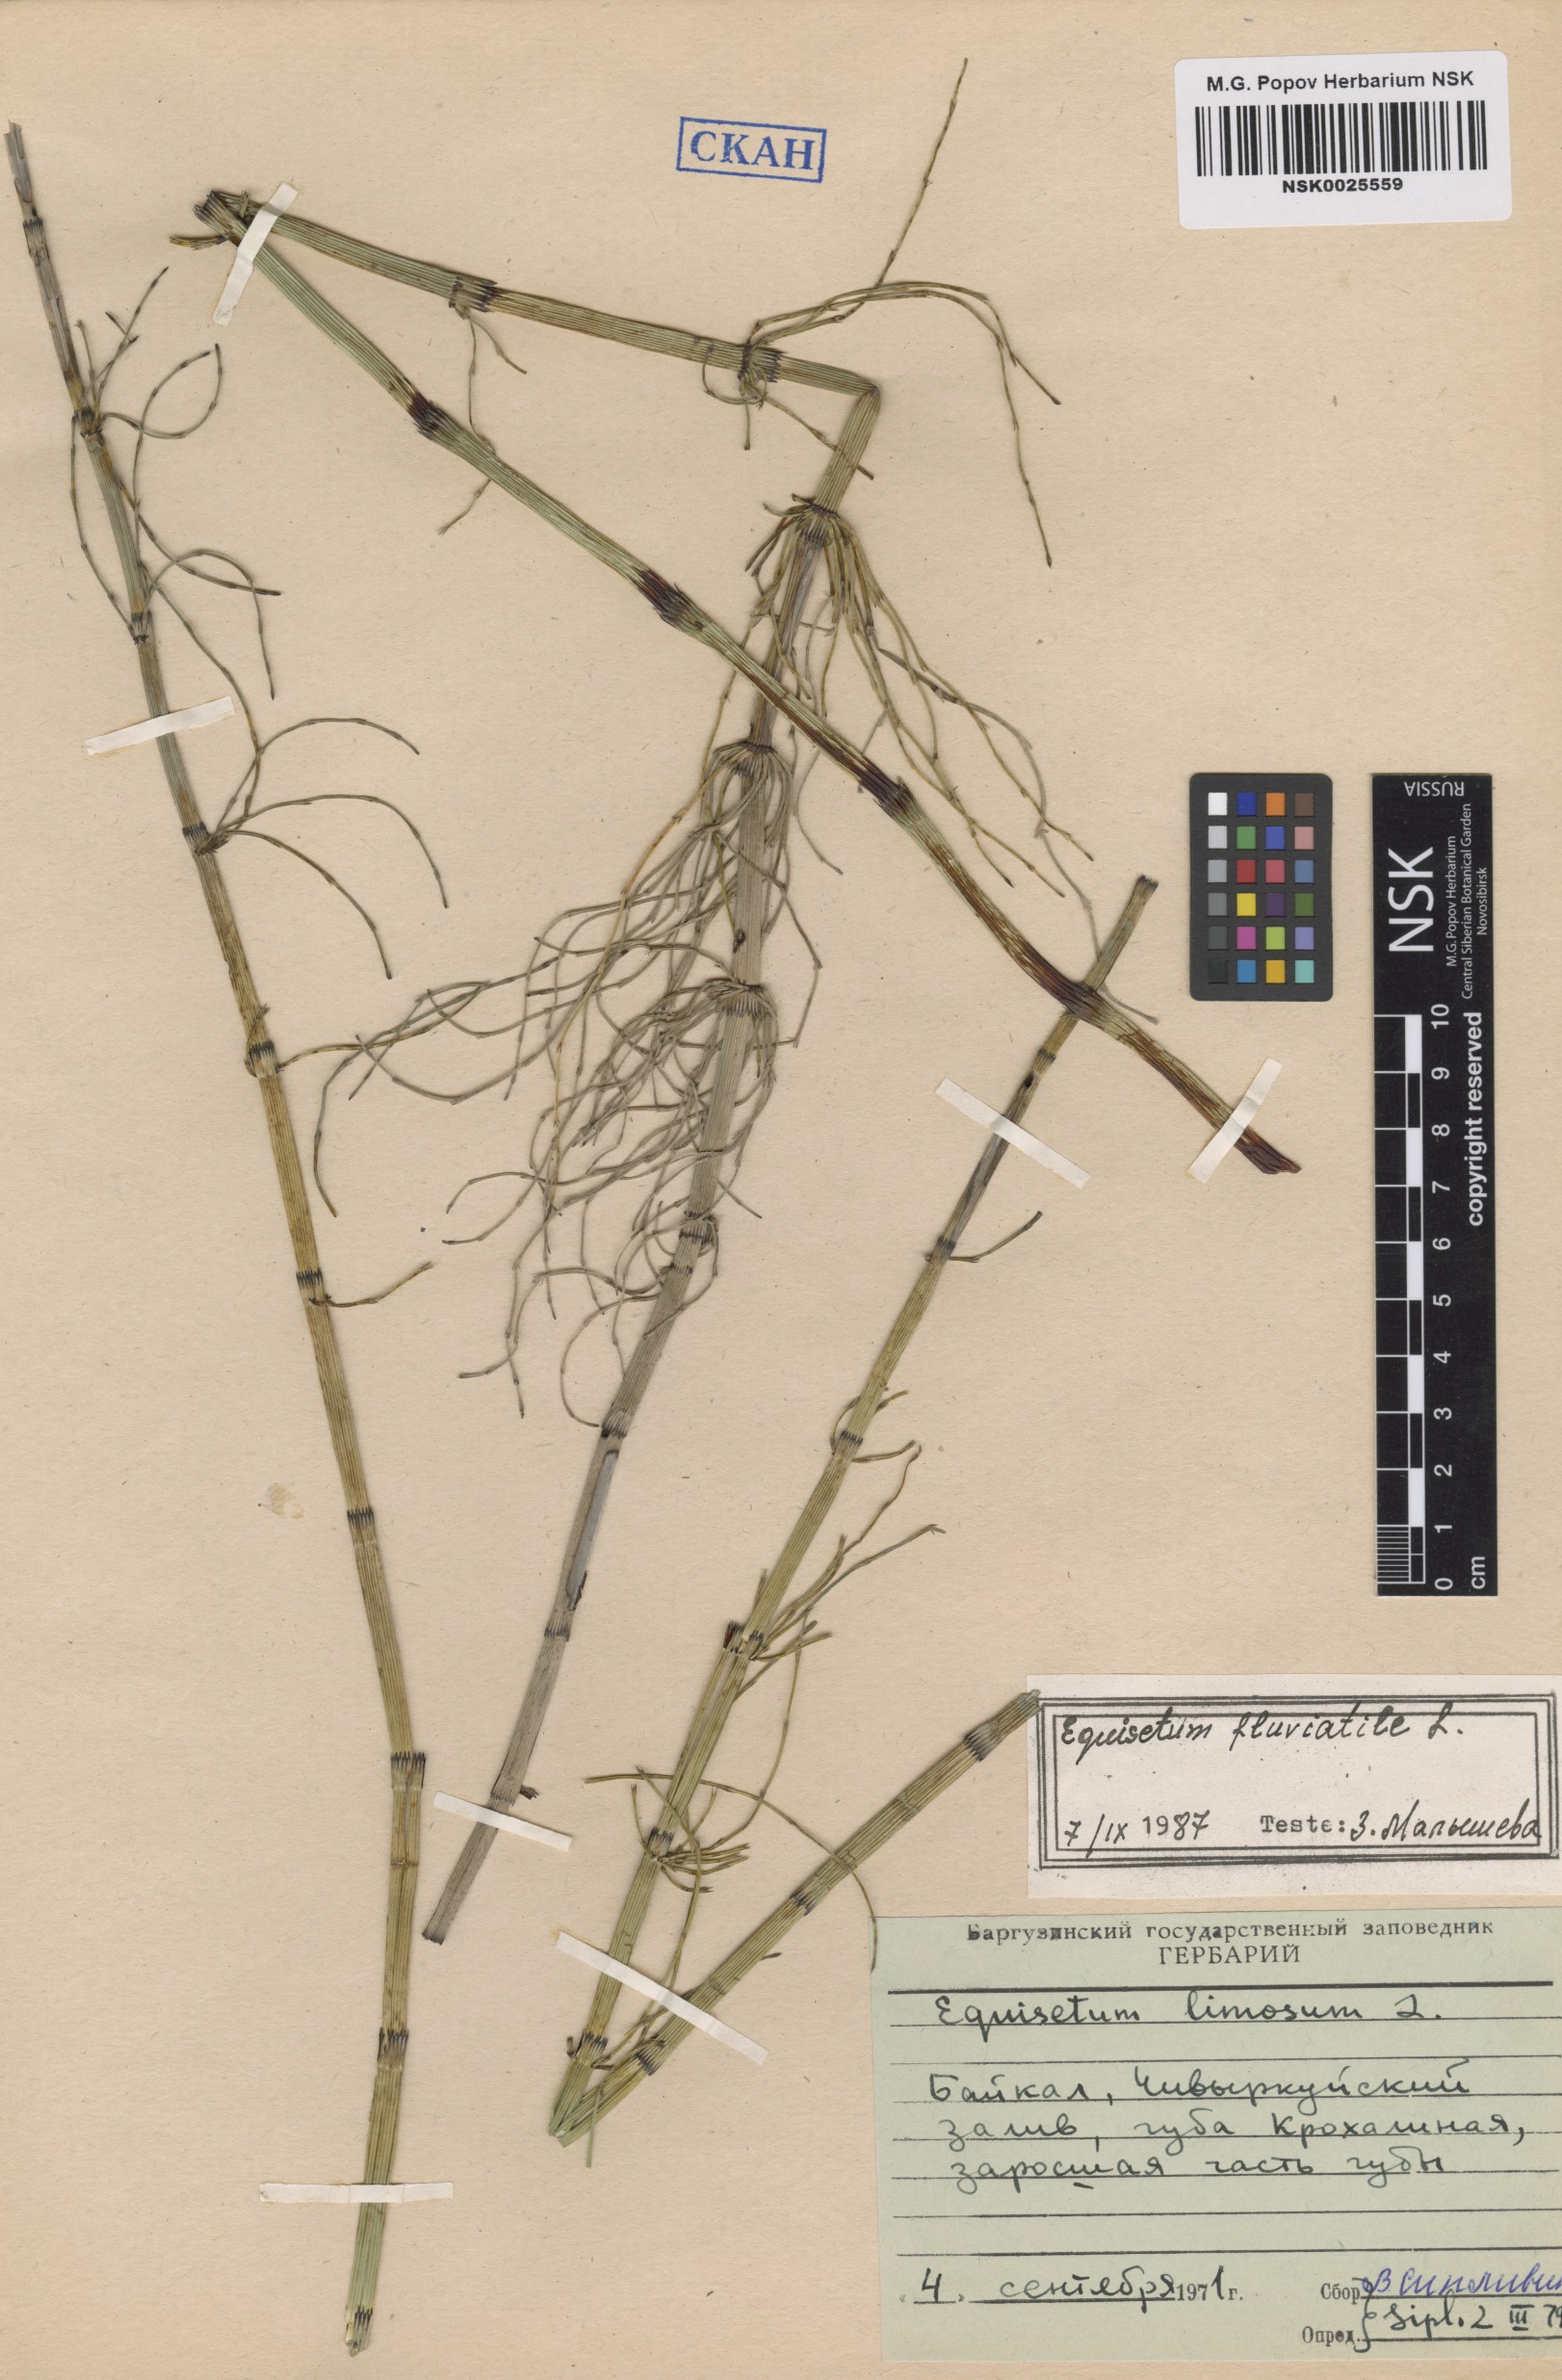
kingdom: Plantae
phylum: Tracheophyta
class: Polypodiopsida
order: Equisetales
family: Equisetaceae
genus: Equisetum
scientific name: Equisetum fluviatile
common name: Water horsetail
